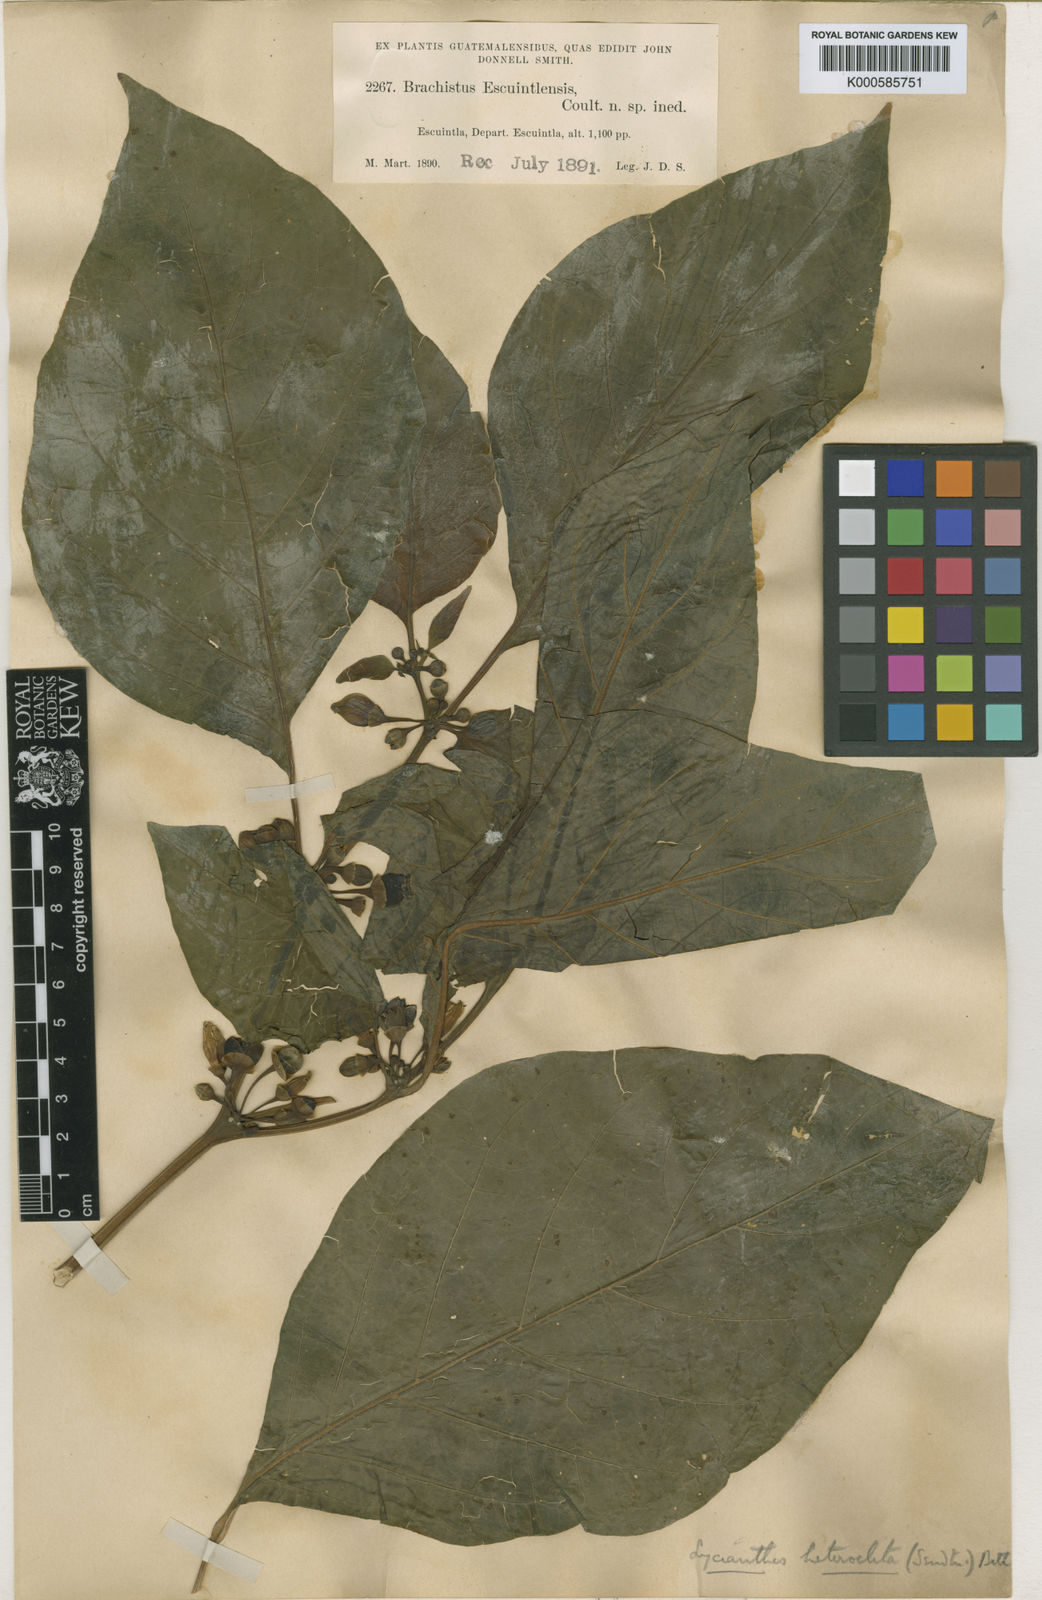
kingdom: Plantae
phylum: Tracheophyta
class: Magnoliopsida
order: Solanales
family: Solanaceae
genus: Lycianthes
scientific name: Lycianthes heteroclita
